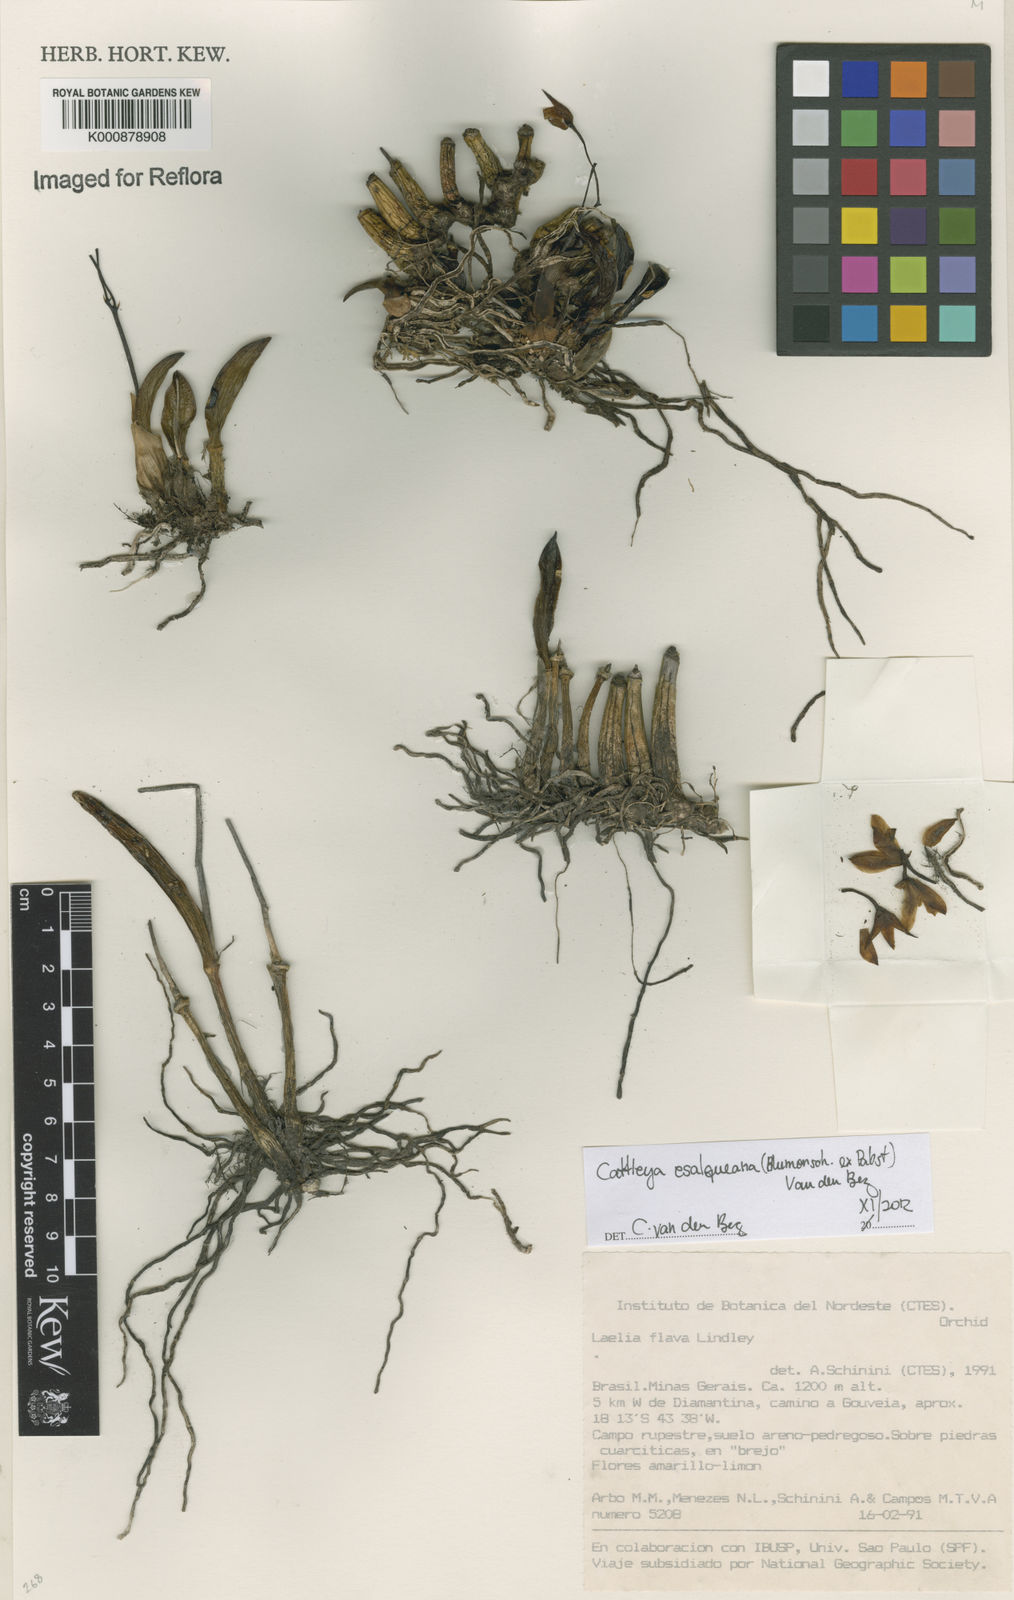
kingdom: Plantae
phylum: Tracheophyta
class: Liliopsida
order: Asparagales
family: Orchidaceae
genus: Cattleya
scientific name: Cattleya bradei
